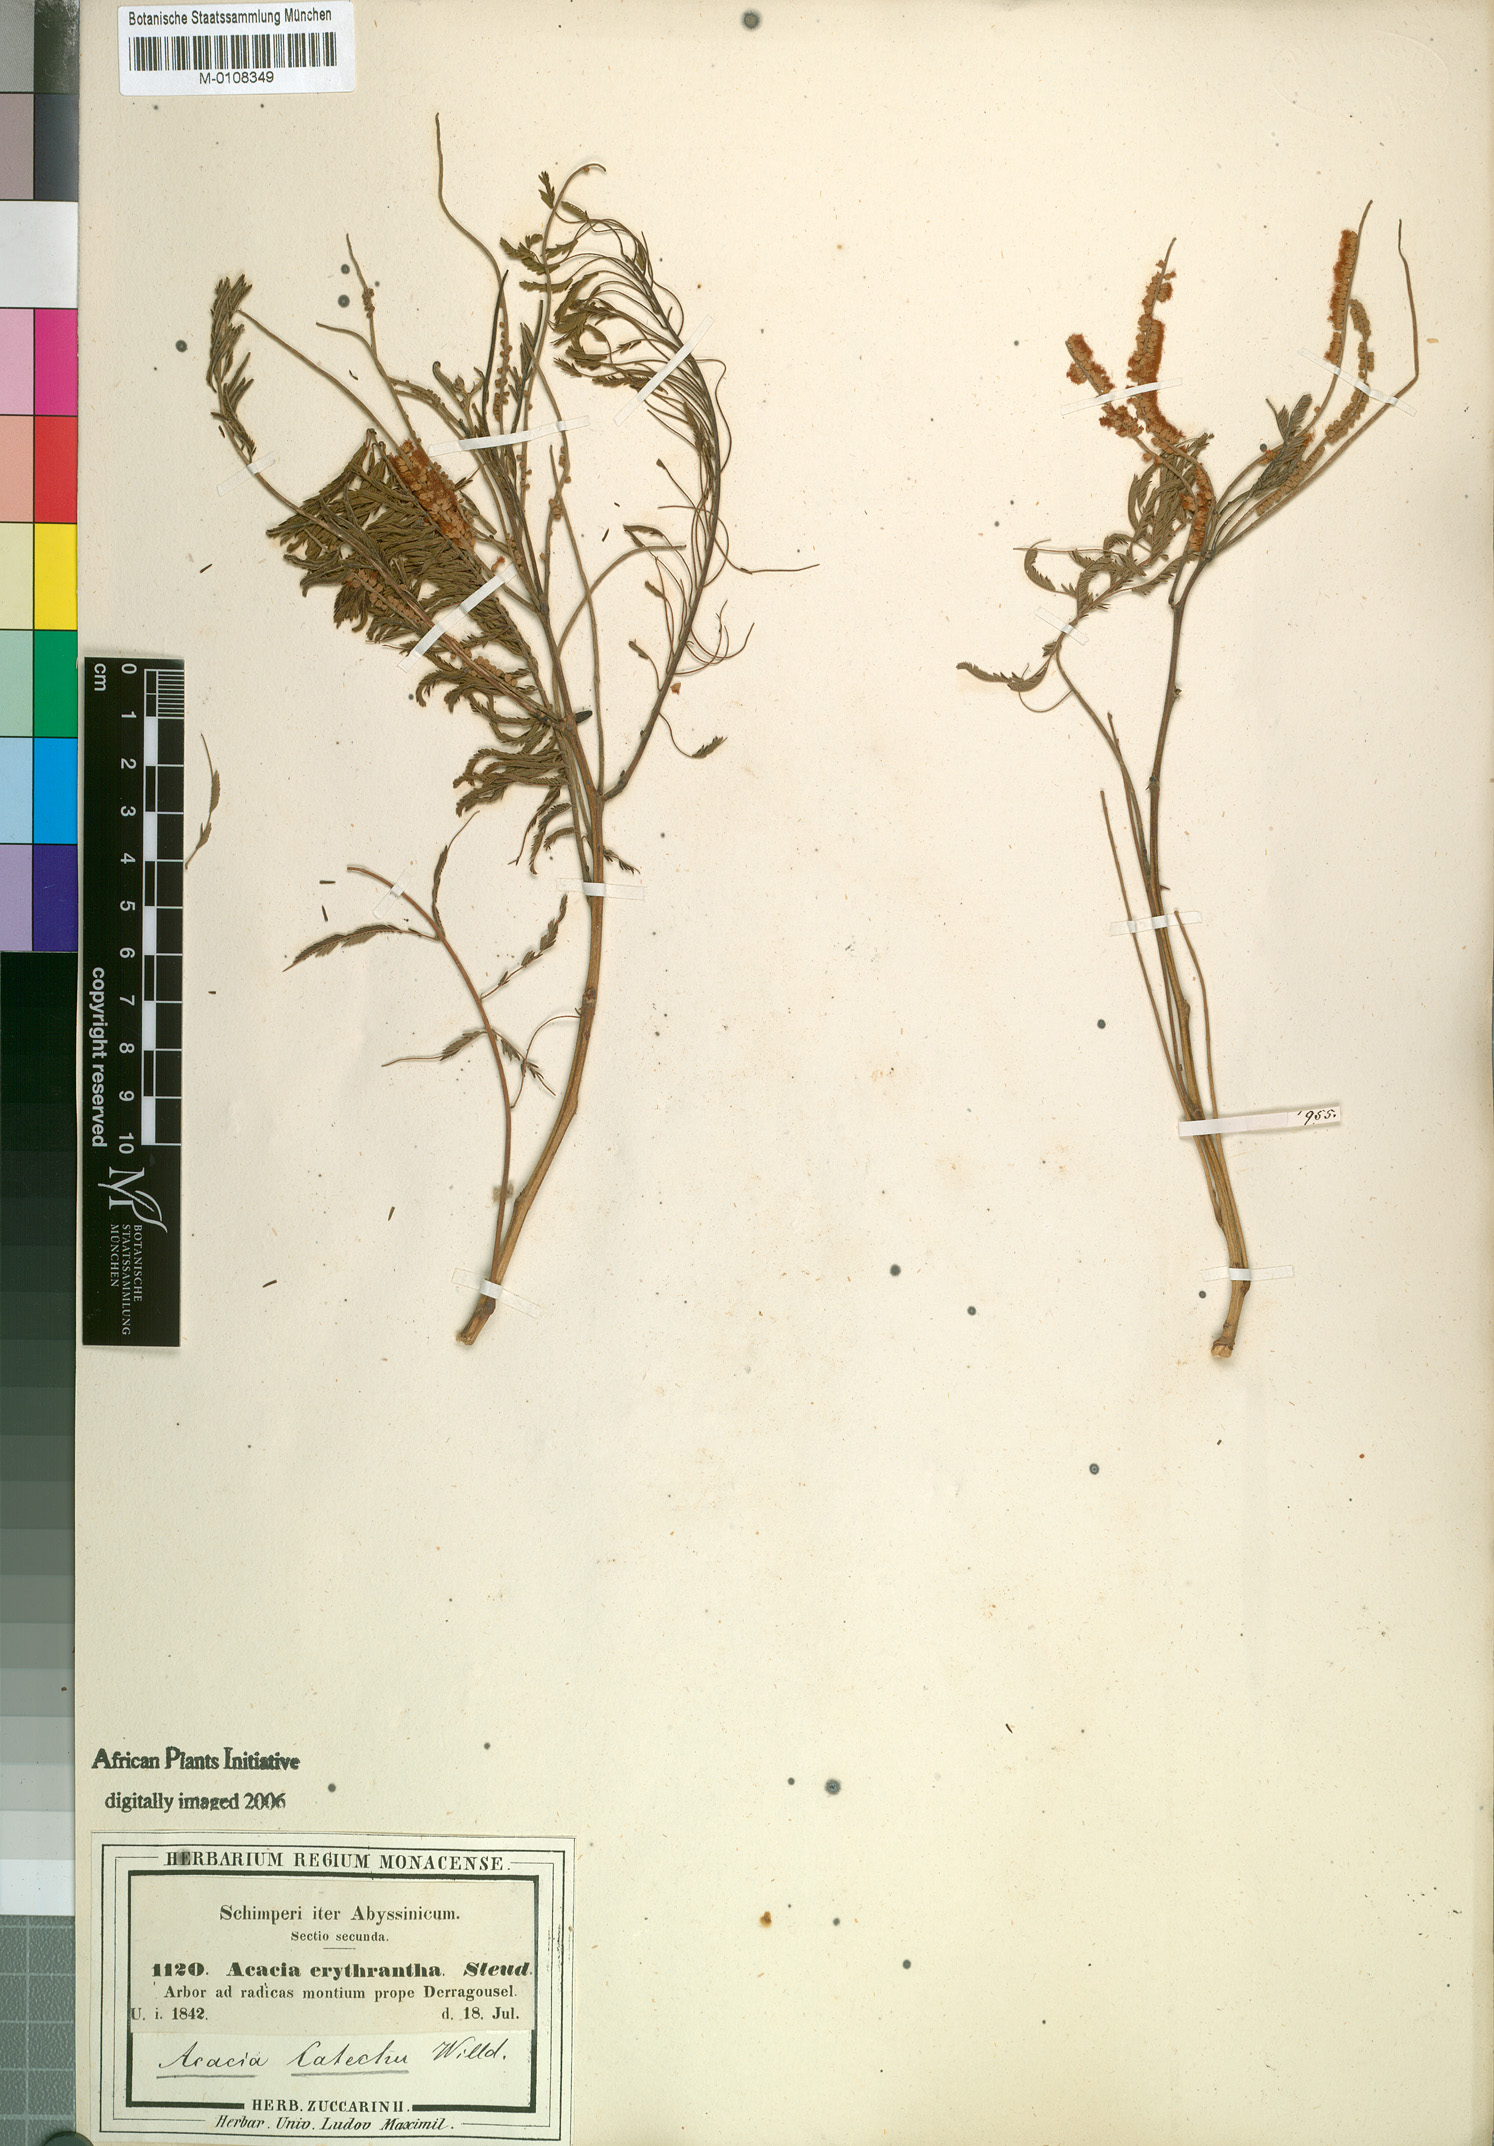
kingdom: Plantae
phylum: Tracheophyta
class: Magnoliopsida
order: Fabales
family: Fabaceae
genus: Senegalia
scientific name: Senegalia polyacantha
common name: Whitethorn
